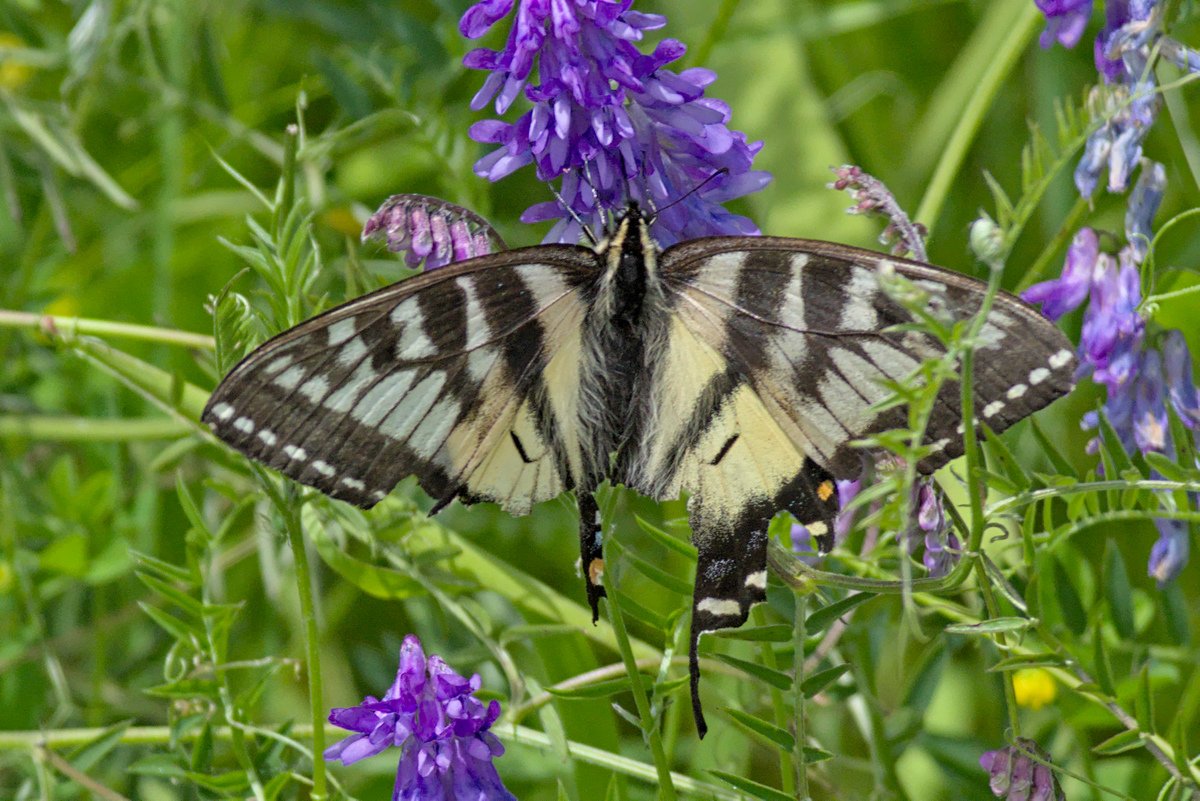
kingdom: Animalia
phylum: Arthropoda
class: Insecta
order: Lepidoptera
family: Papilionidae
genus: Pterourus
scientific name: Pterourus canadensis
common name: Canadian Tiger Swallowtail
